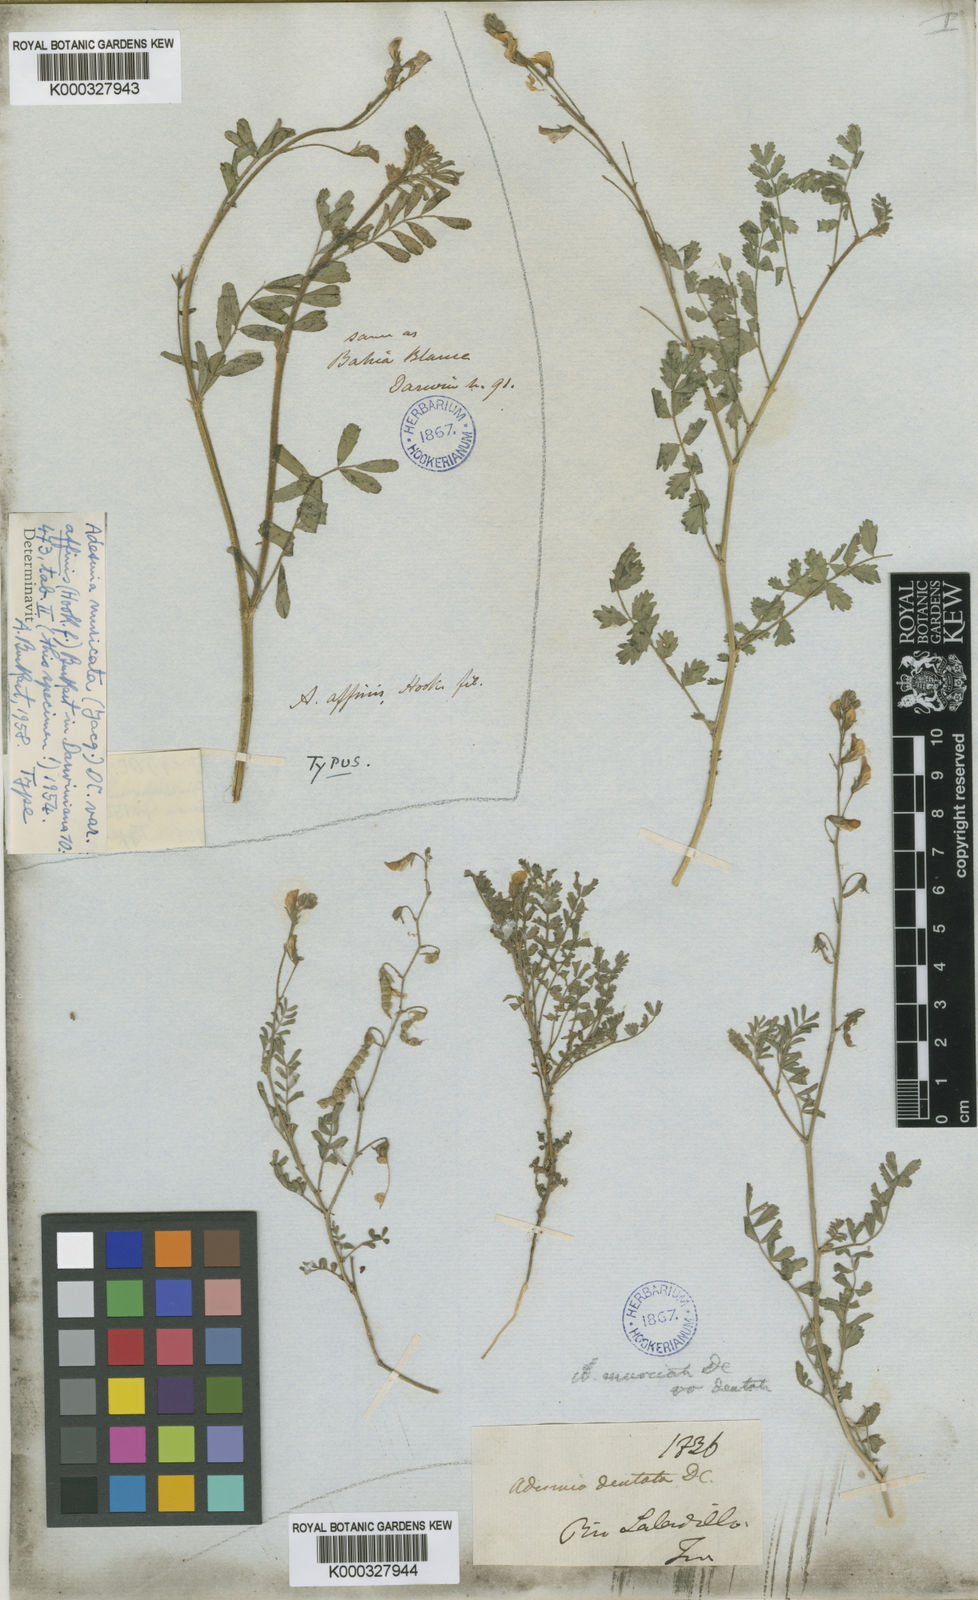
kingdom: Plantae
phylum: Tracheophyta
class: Magnoliopsida
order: Fabales
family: Fabaceae
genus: Adesmia
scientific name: Adesmia muricata
